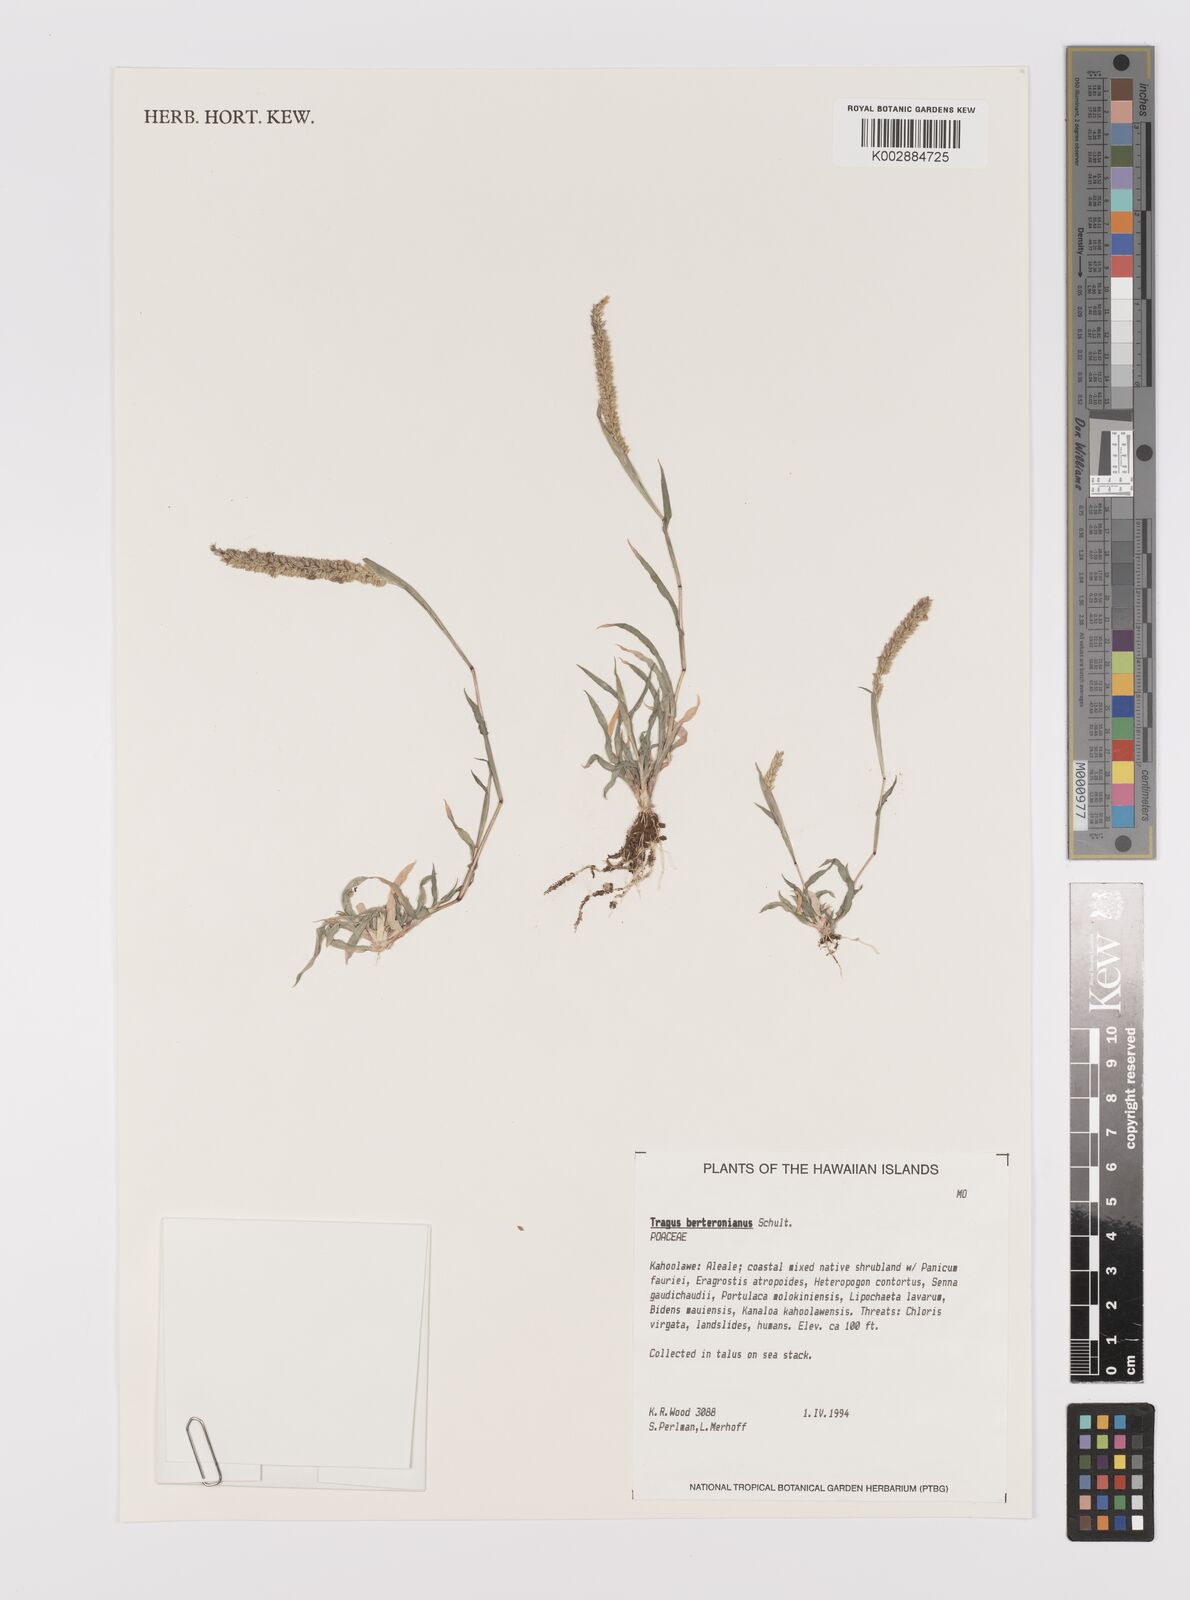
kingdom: Plantae
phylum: Tracheophyta
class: Liliopsida
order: Poales
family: Poaceae
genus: Tragus
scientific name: Tragus berteronianus
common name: African bur-grass
